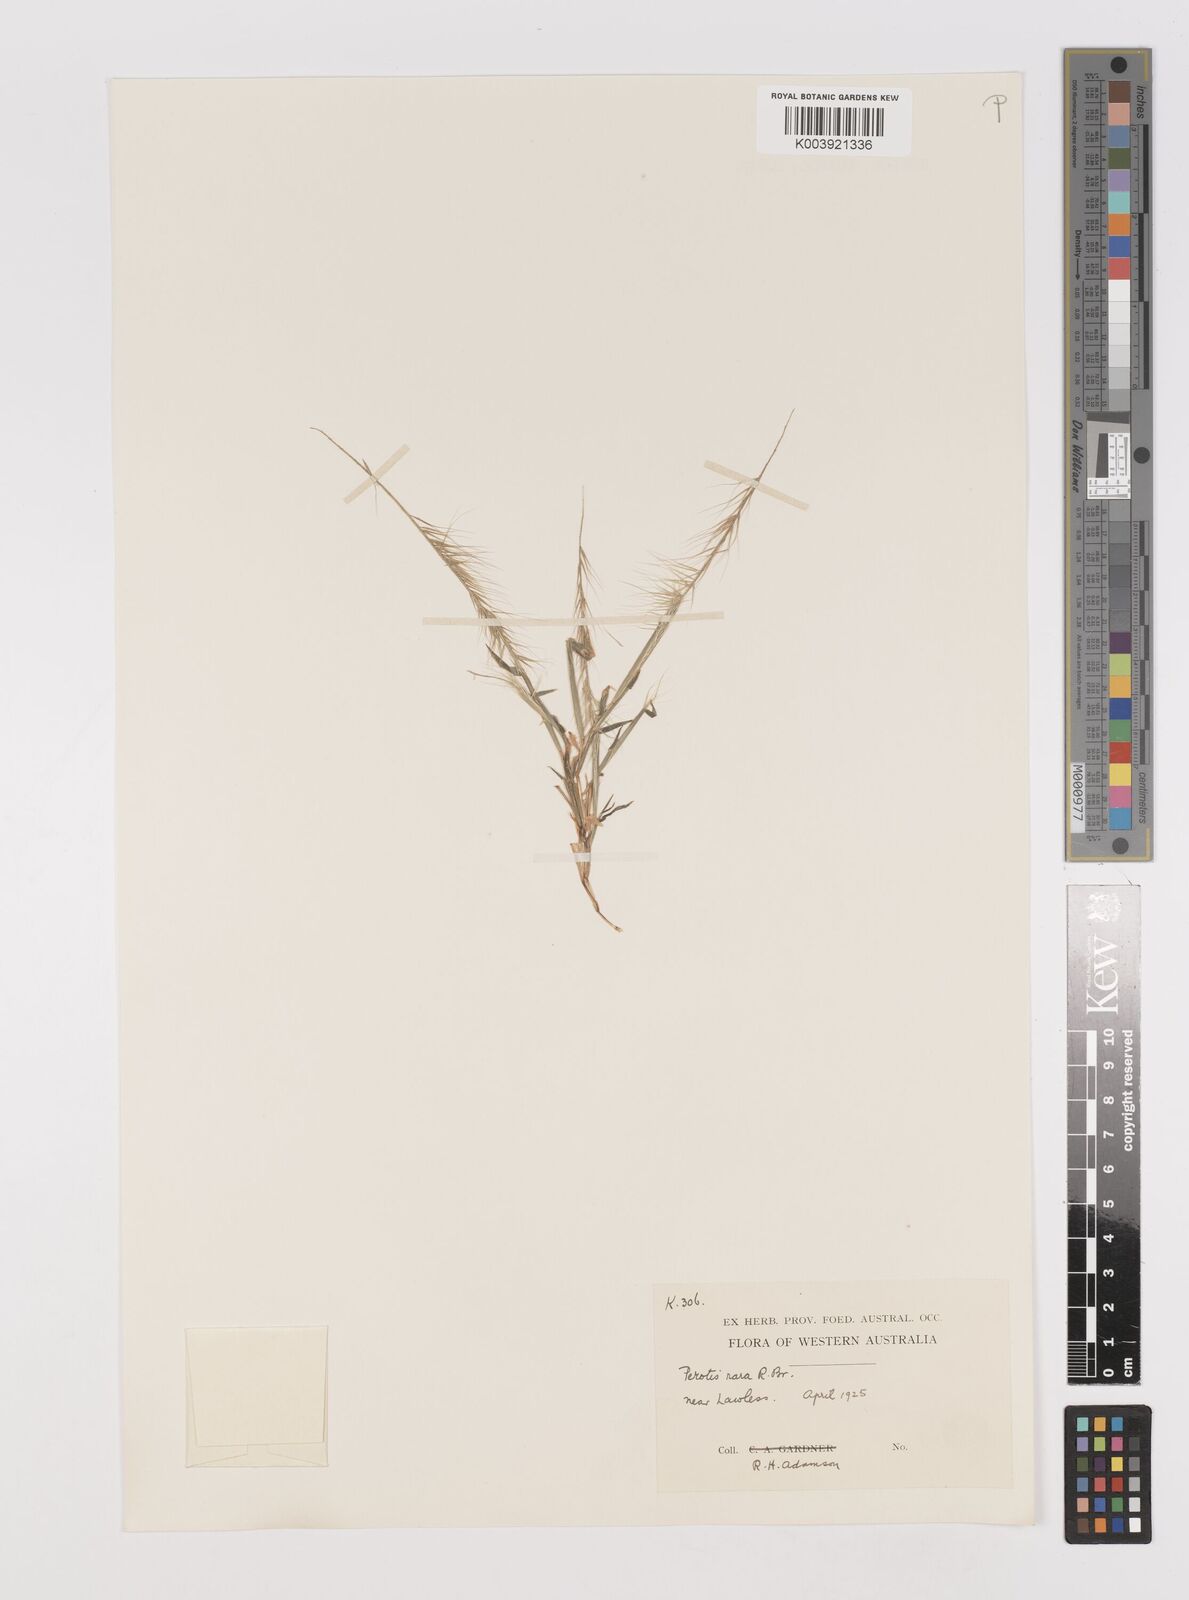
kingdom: Plantae
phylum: Tracheophyta
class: Liliopsida
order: Poales
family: Poaceae
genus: Perotis
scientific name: Perotis rara
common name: Comet grass
